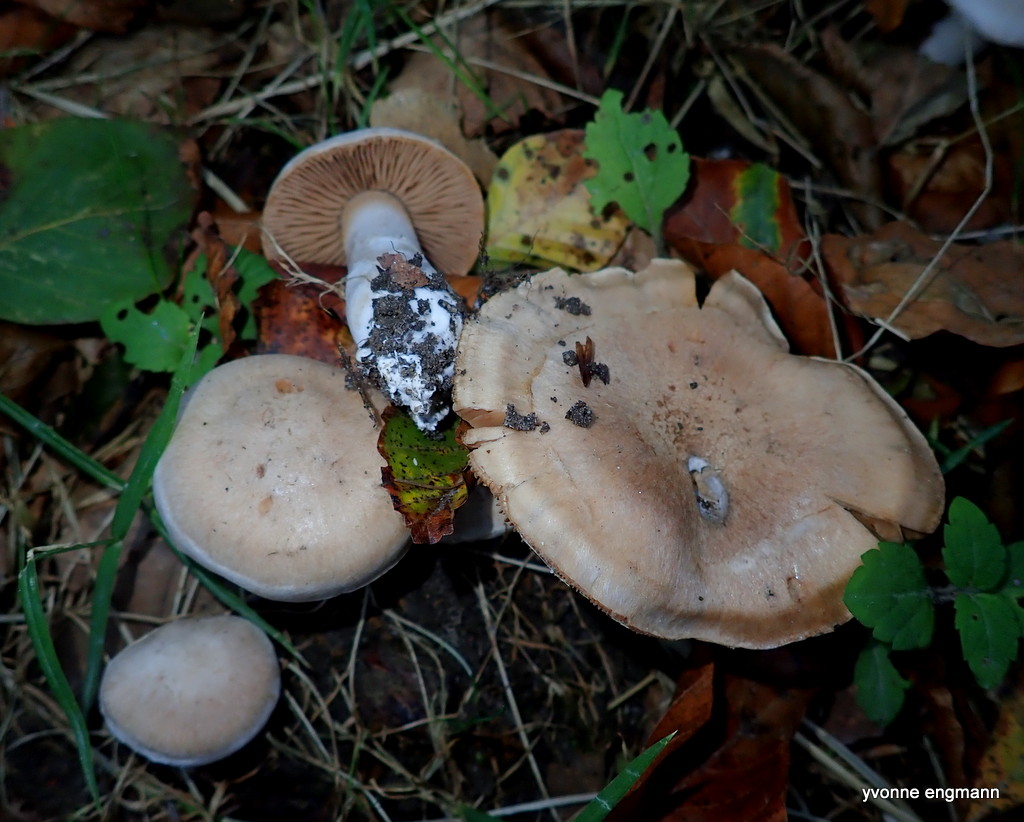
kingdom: Fungi
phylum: Basidiomycota
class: Agaricomycetes
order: Agaricales
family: Cortinariaceae
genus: Cortinarius
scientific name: Cortinarius
